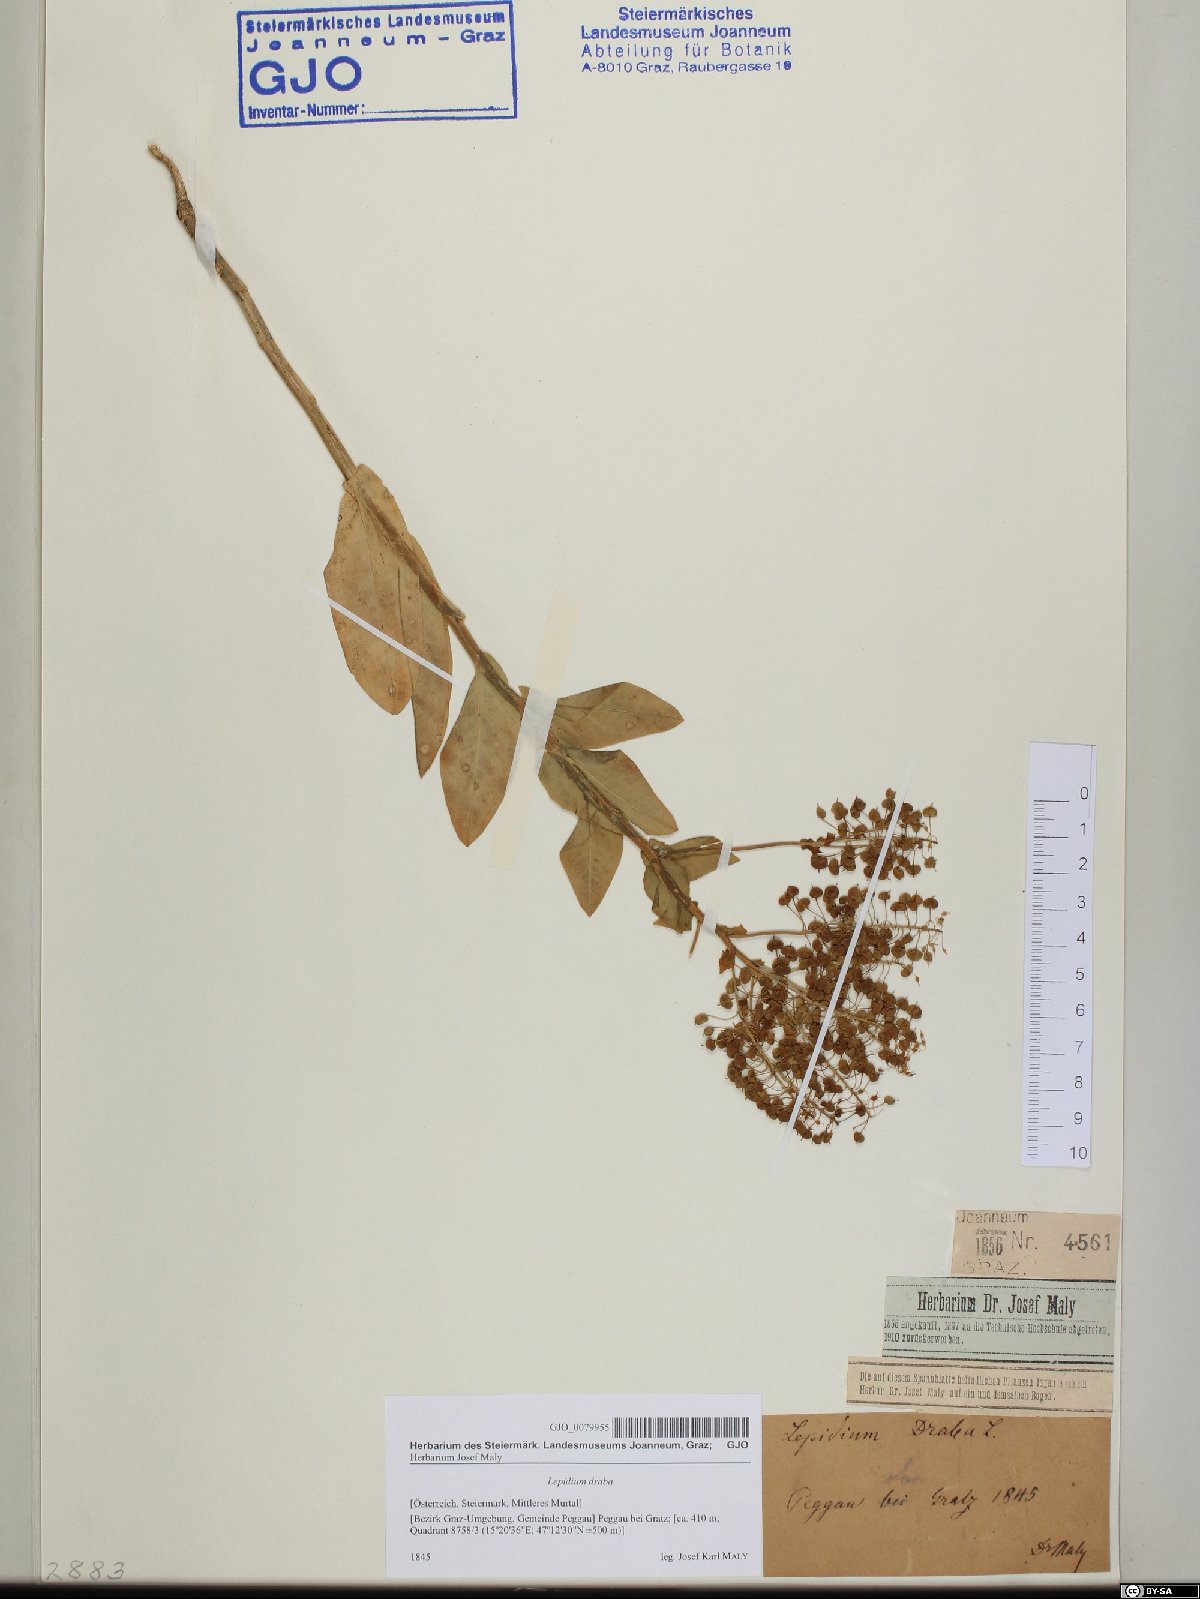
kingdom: Plantae
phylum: Tracheophyta
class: Magnoliopsida
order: Brassicales
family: Brassicaceae
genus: Lepidium
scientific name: Lepidium draba
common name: Hoary cress
